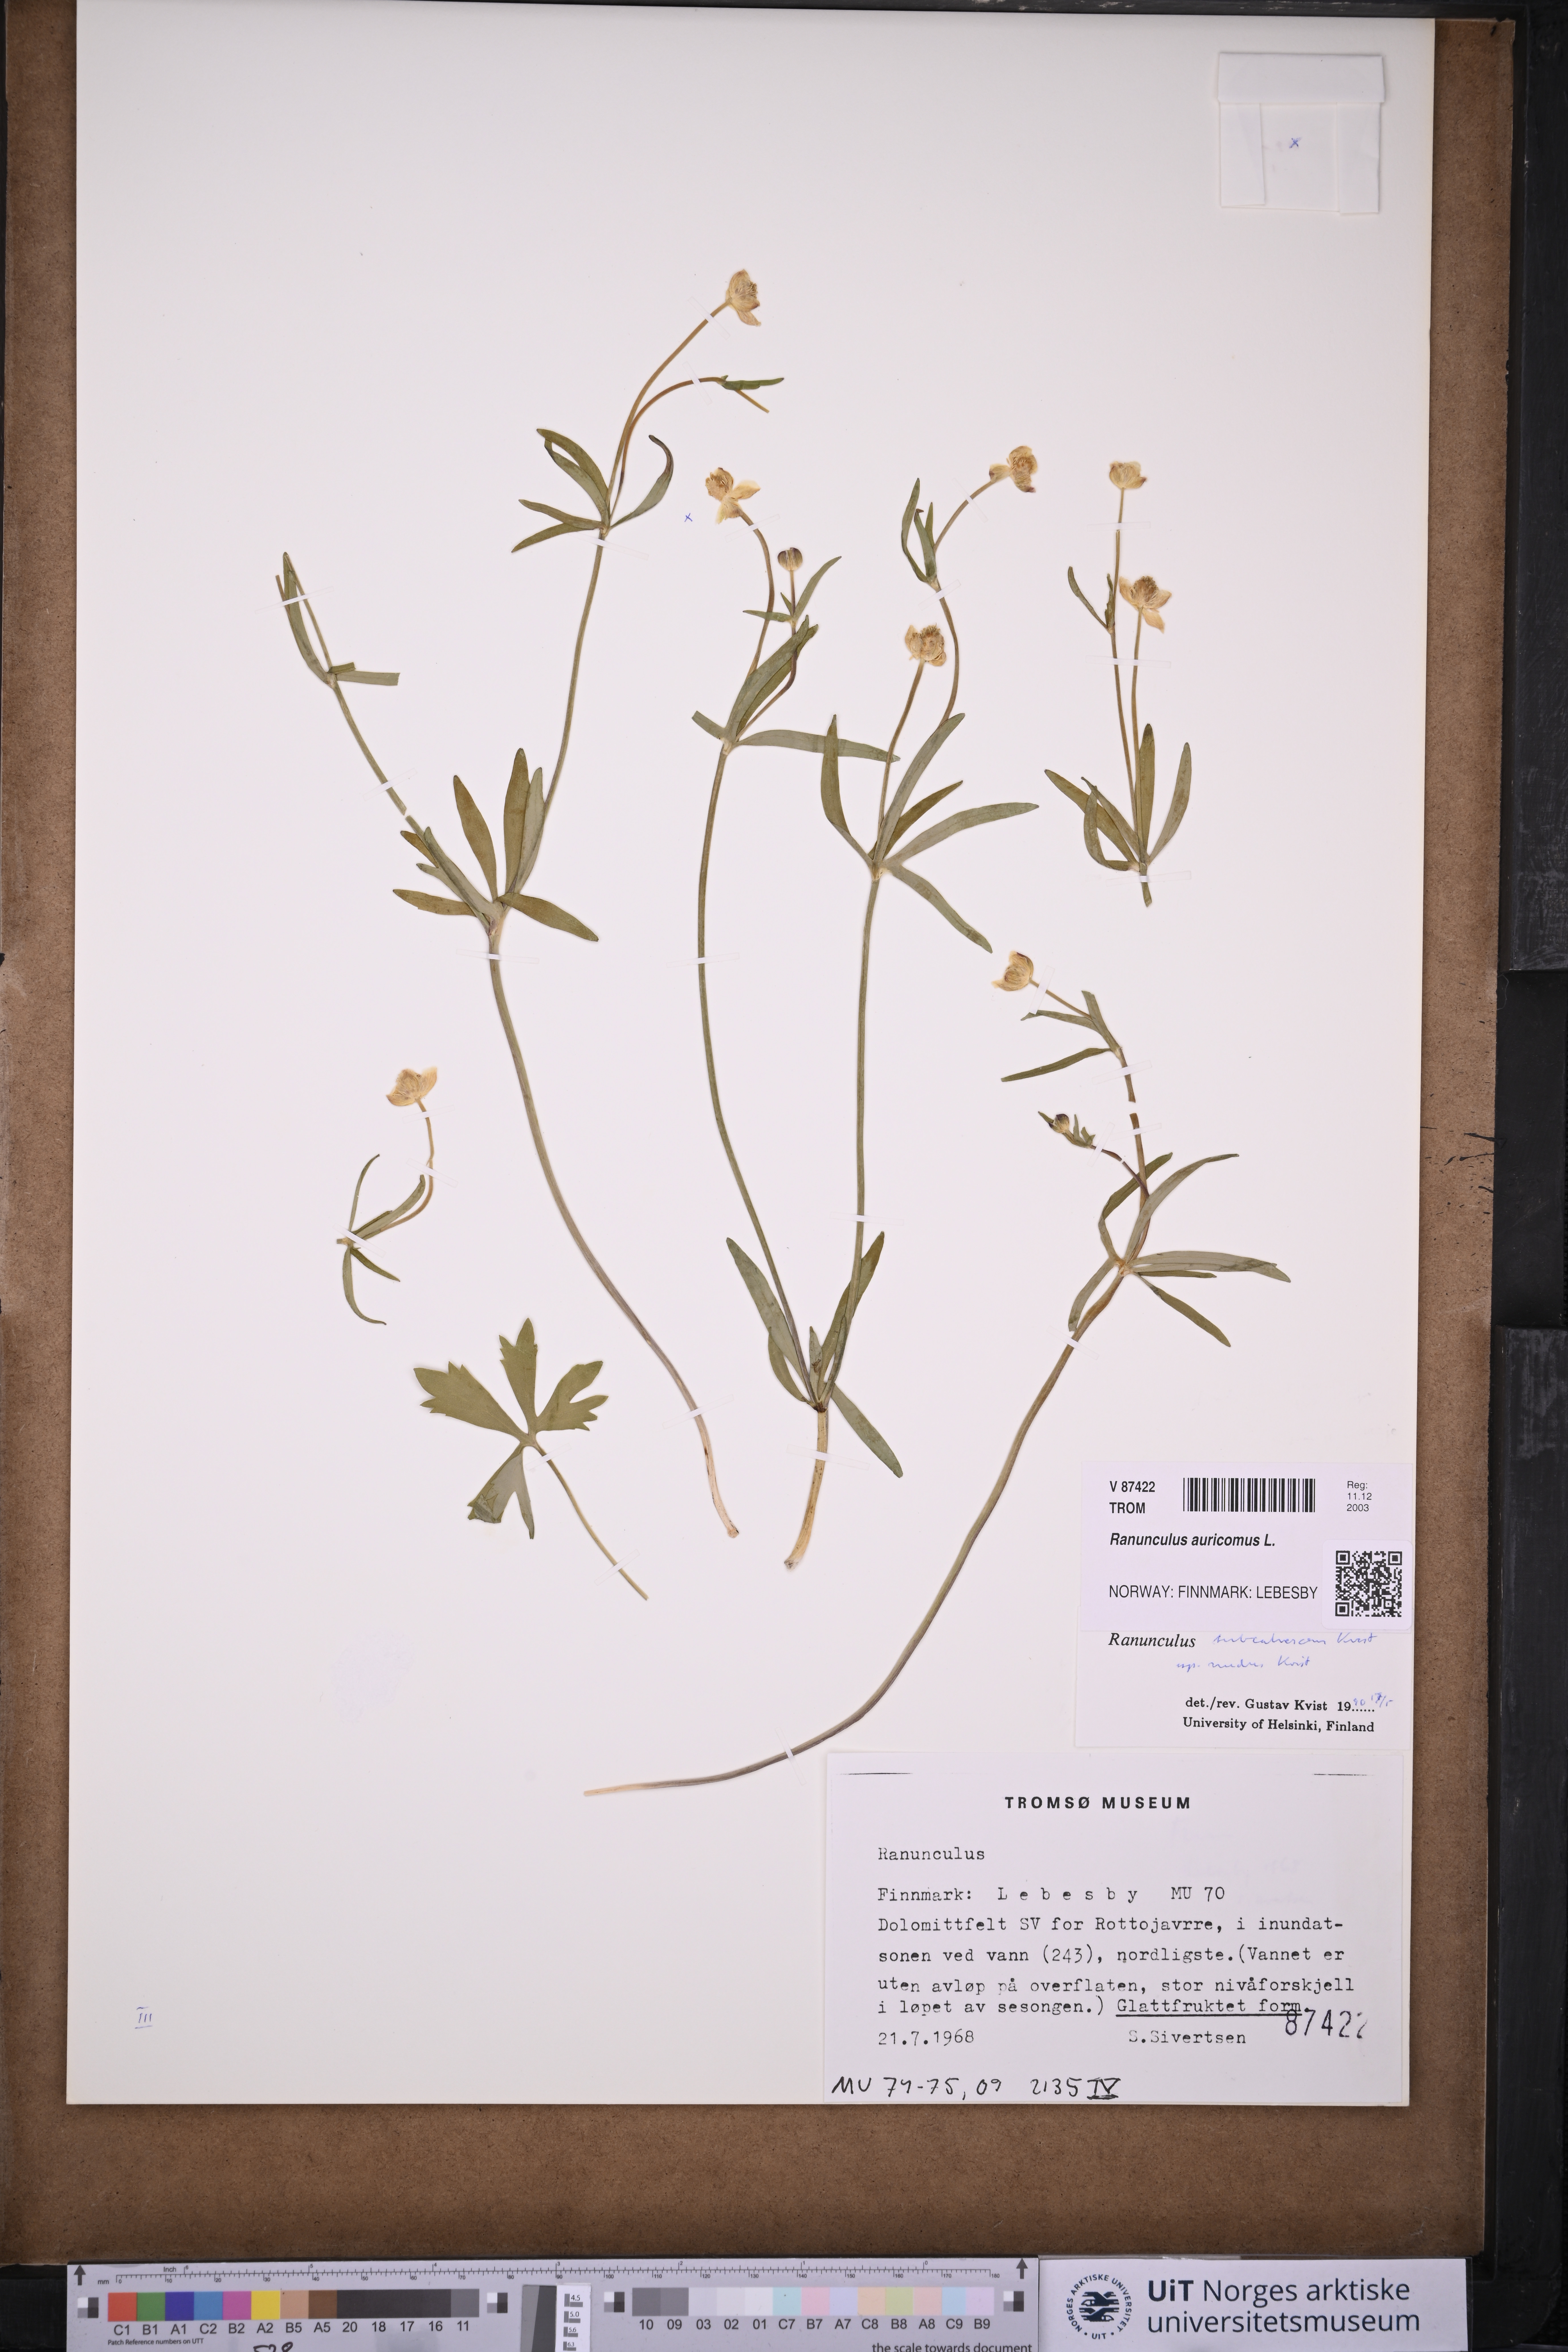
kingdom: Plantae
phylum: Tracheophyta
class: Magnoliopsida
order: Ranunculales
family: Ranunculaceae
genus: Ranunculus
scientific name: Ranunculus auricomus
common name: Goldilocks buttercup
